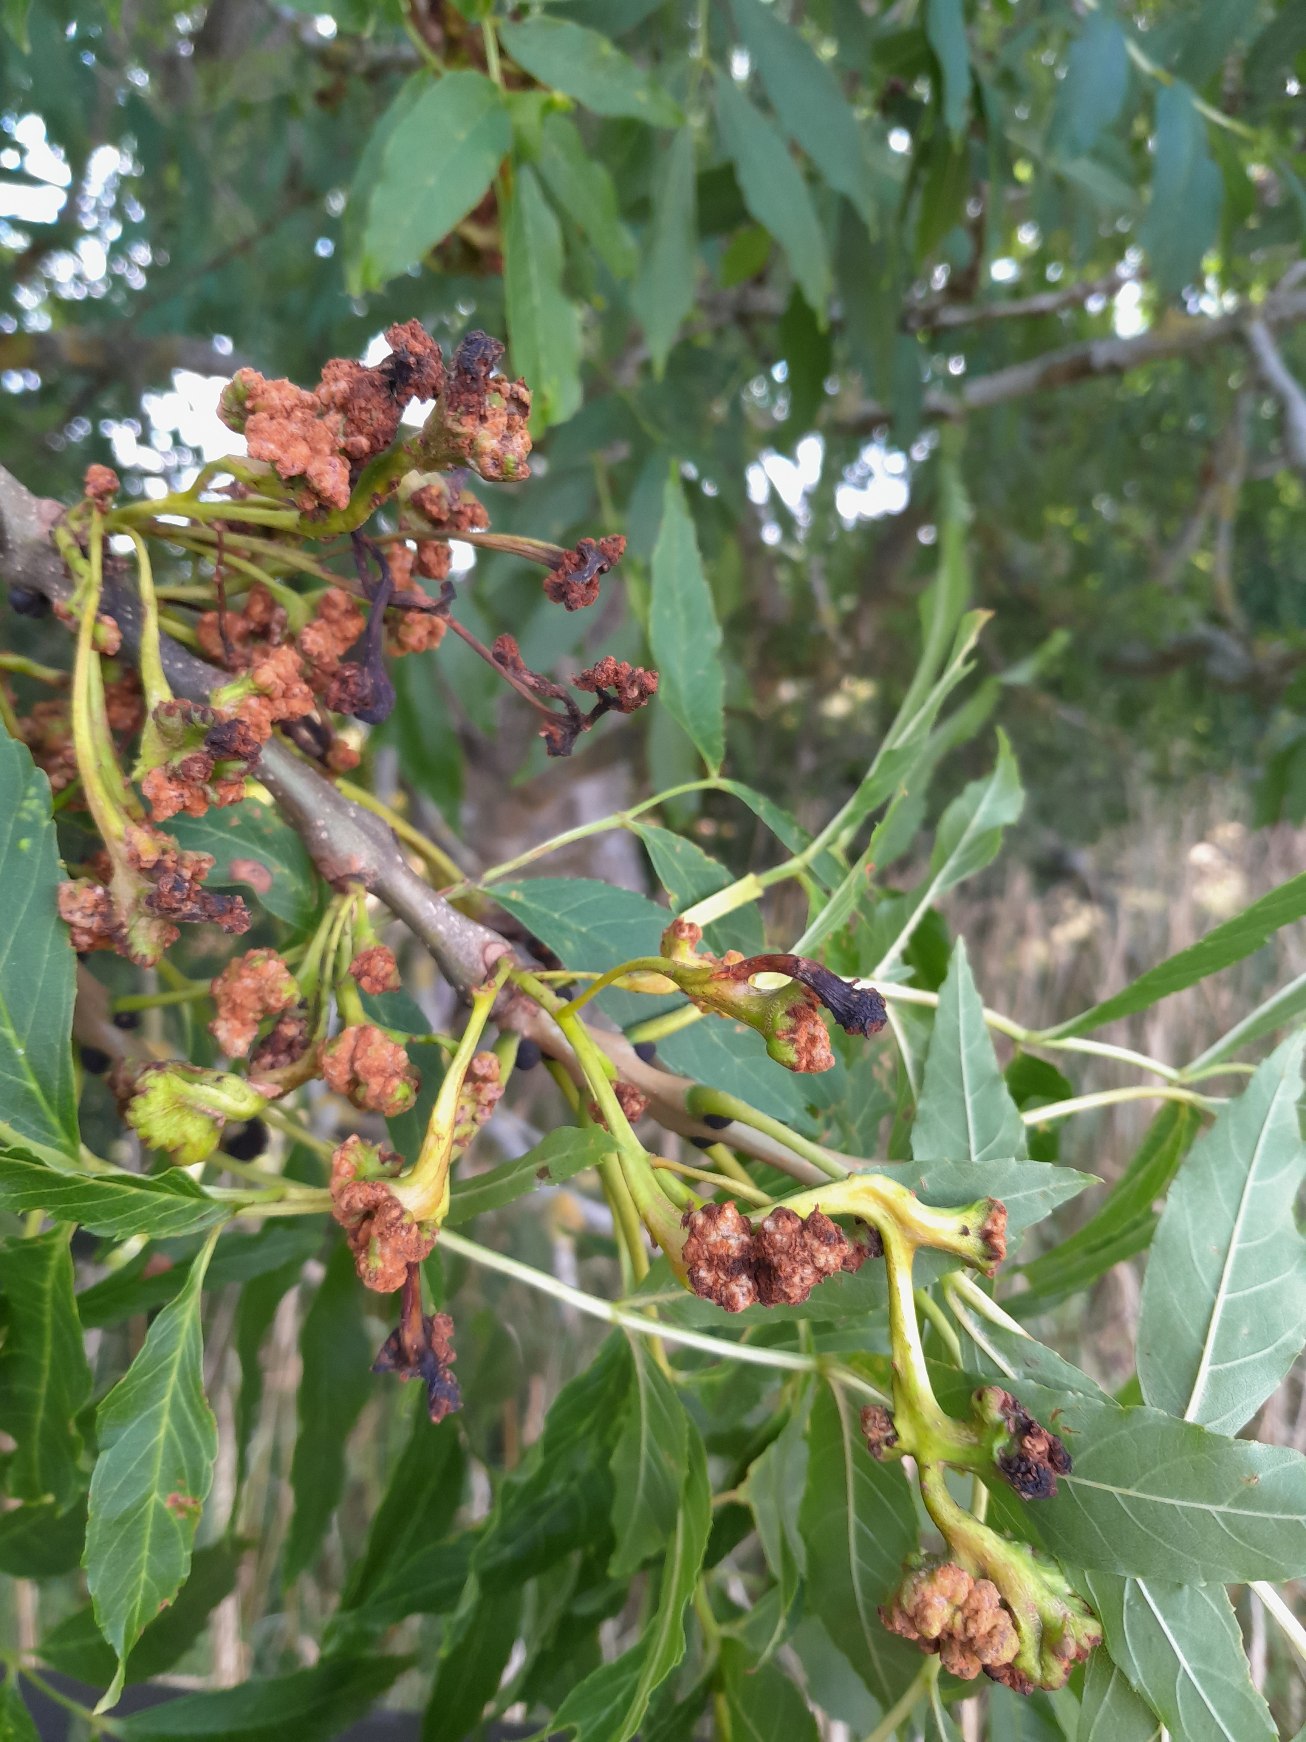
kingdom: Animalia
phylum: Arthropoda
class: Arachnida
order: Trombidiformes
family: Eriophyidae
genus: Aceria
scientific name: Aceria fraxinivora
